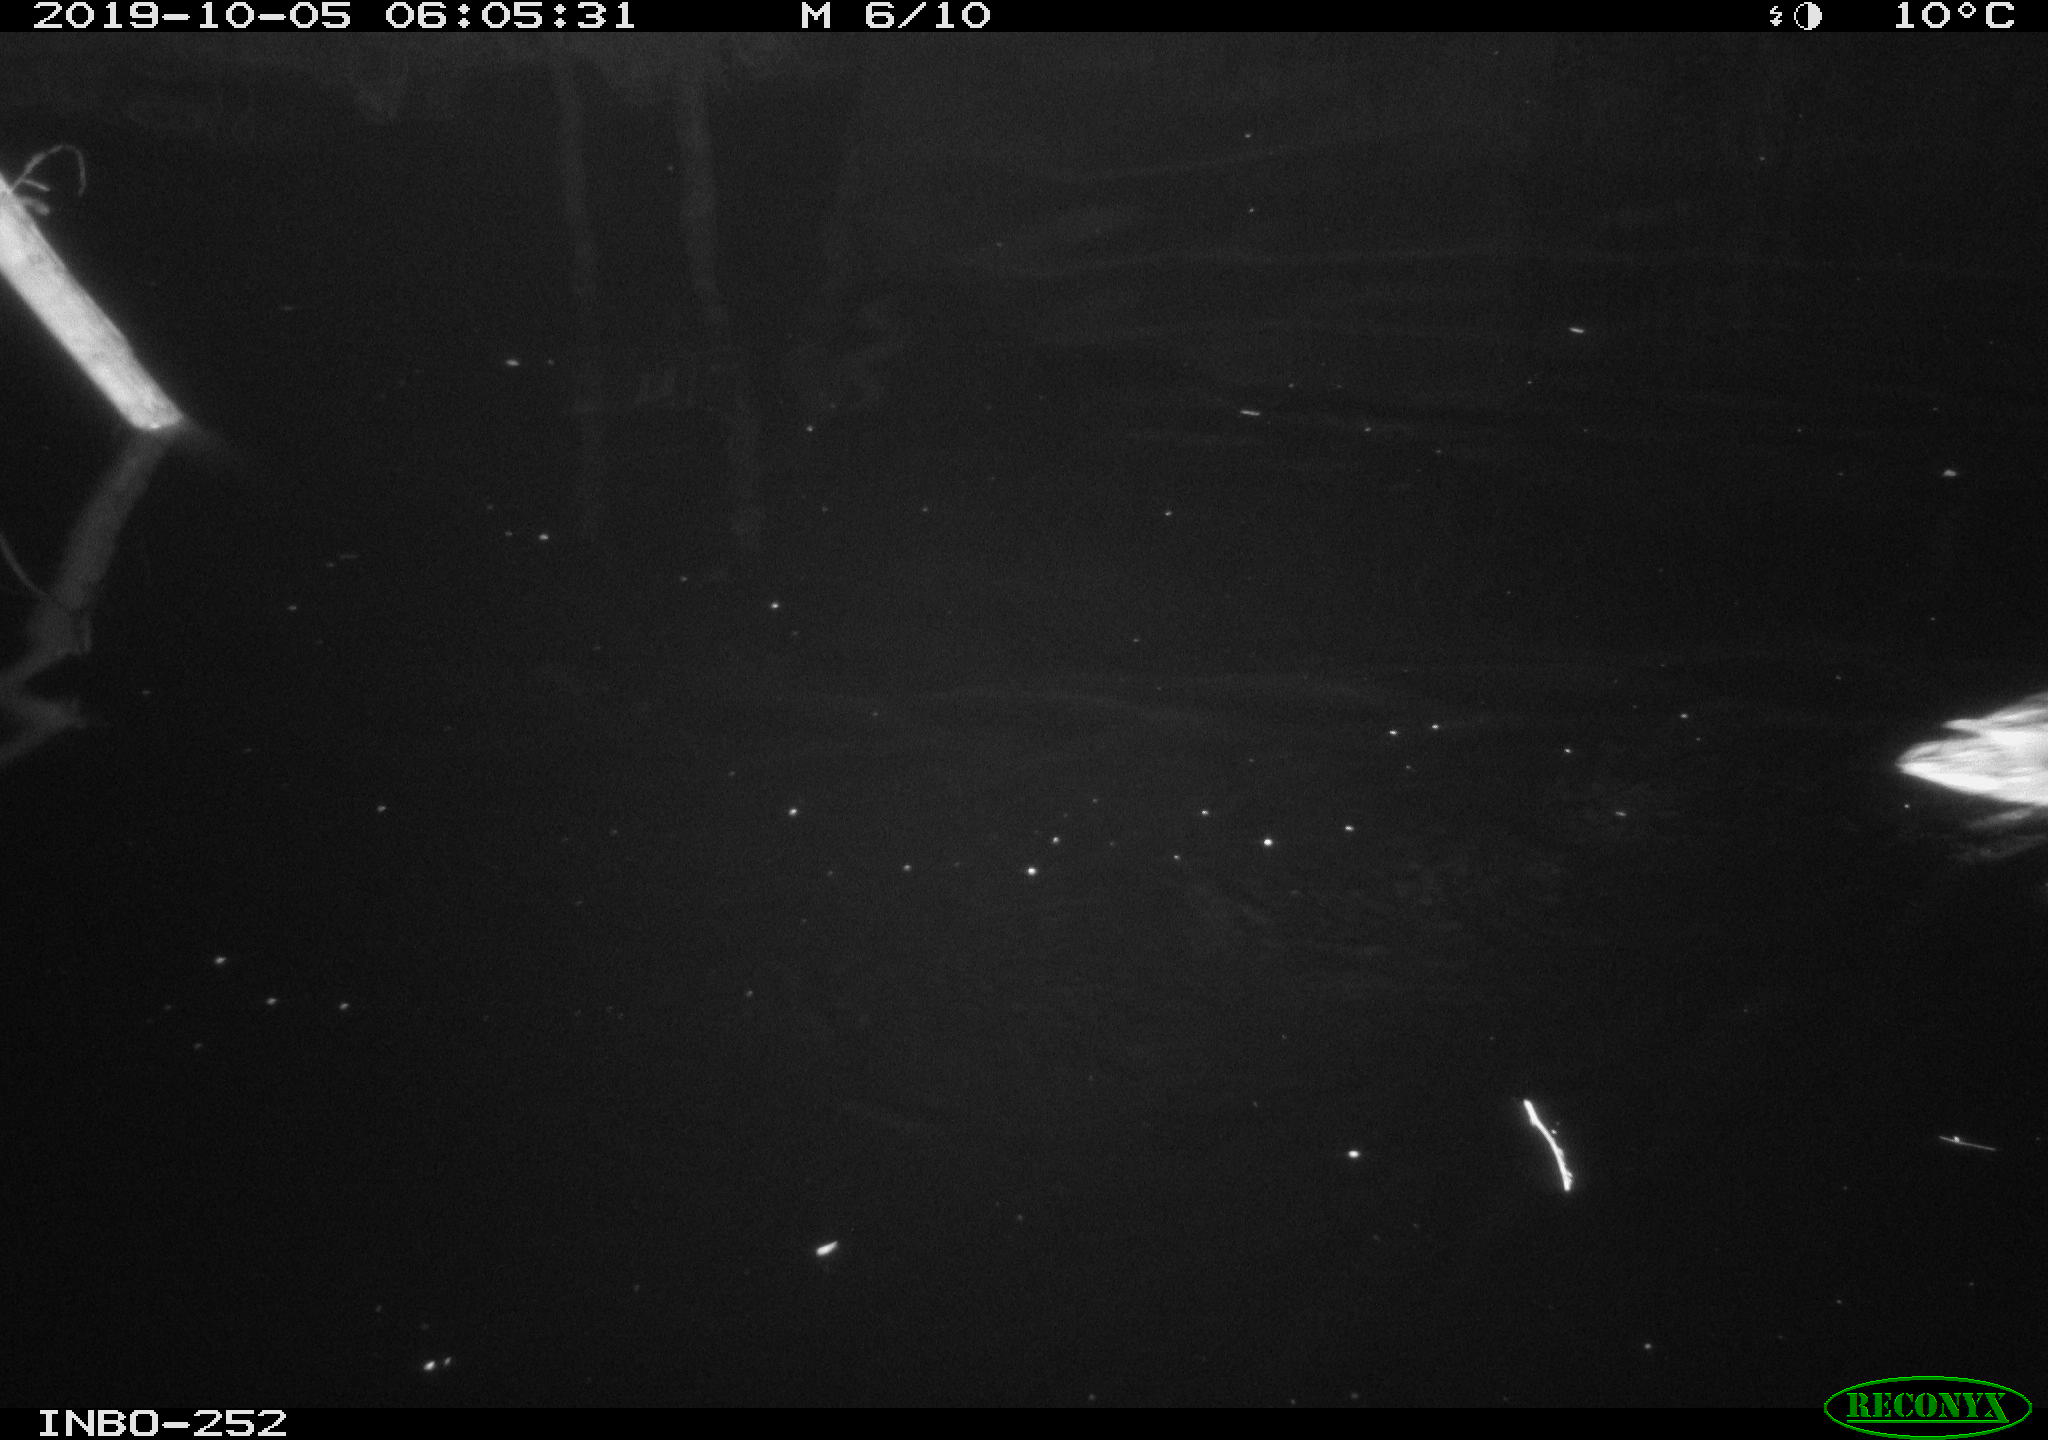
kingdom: Animalia
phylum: Chordata
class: Aves
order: Anseriformes
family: Anatidae
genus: Anas
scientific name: Anas platyrhynchos
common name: Mallard
